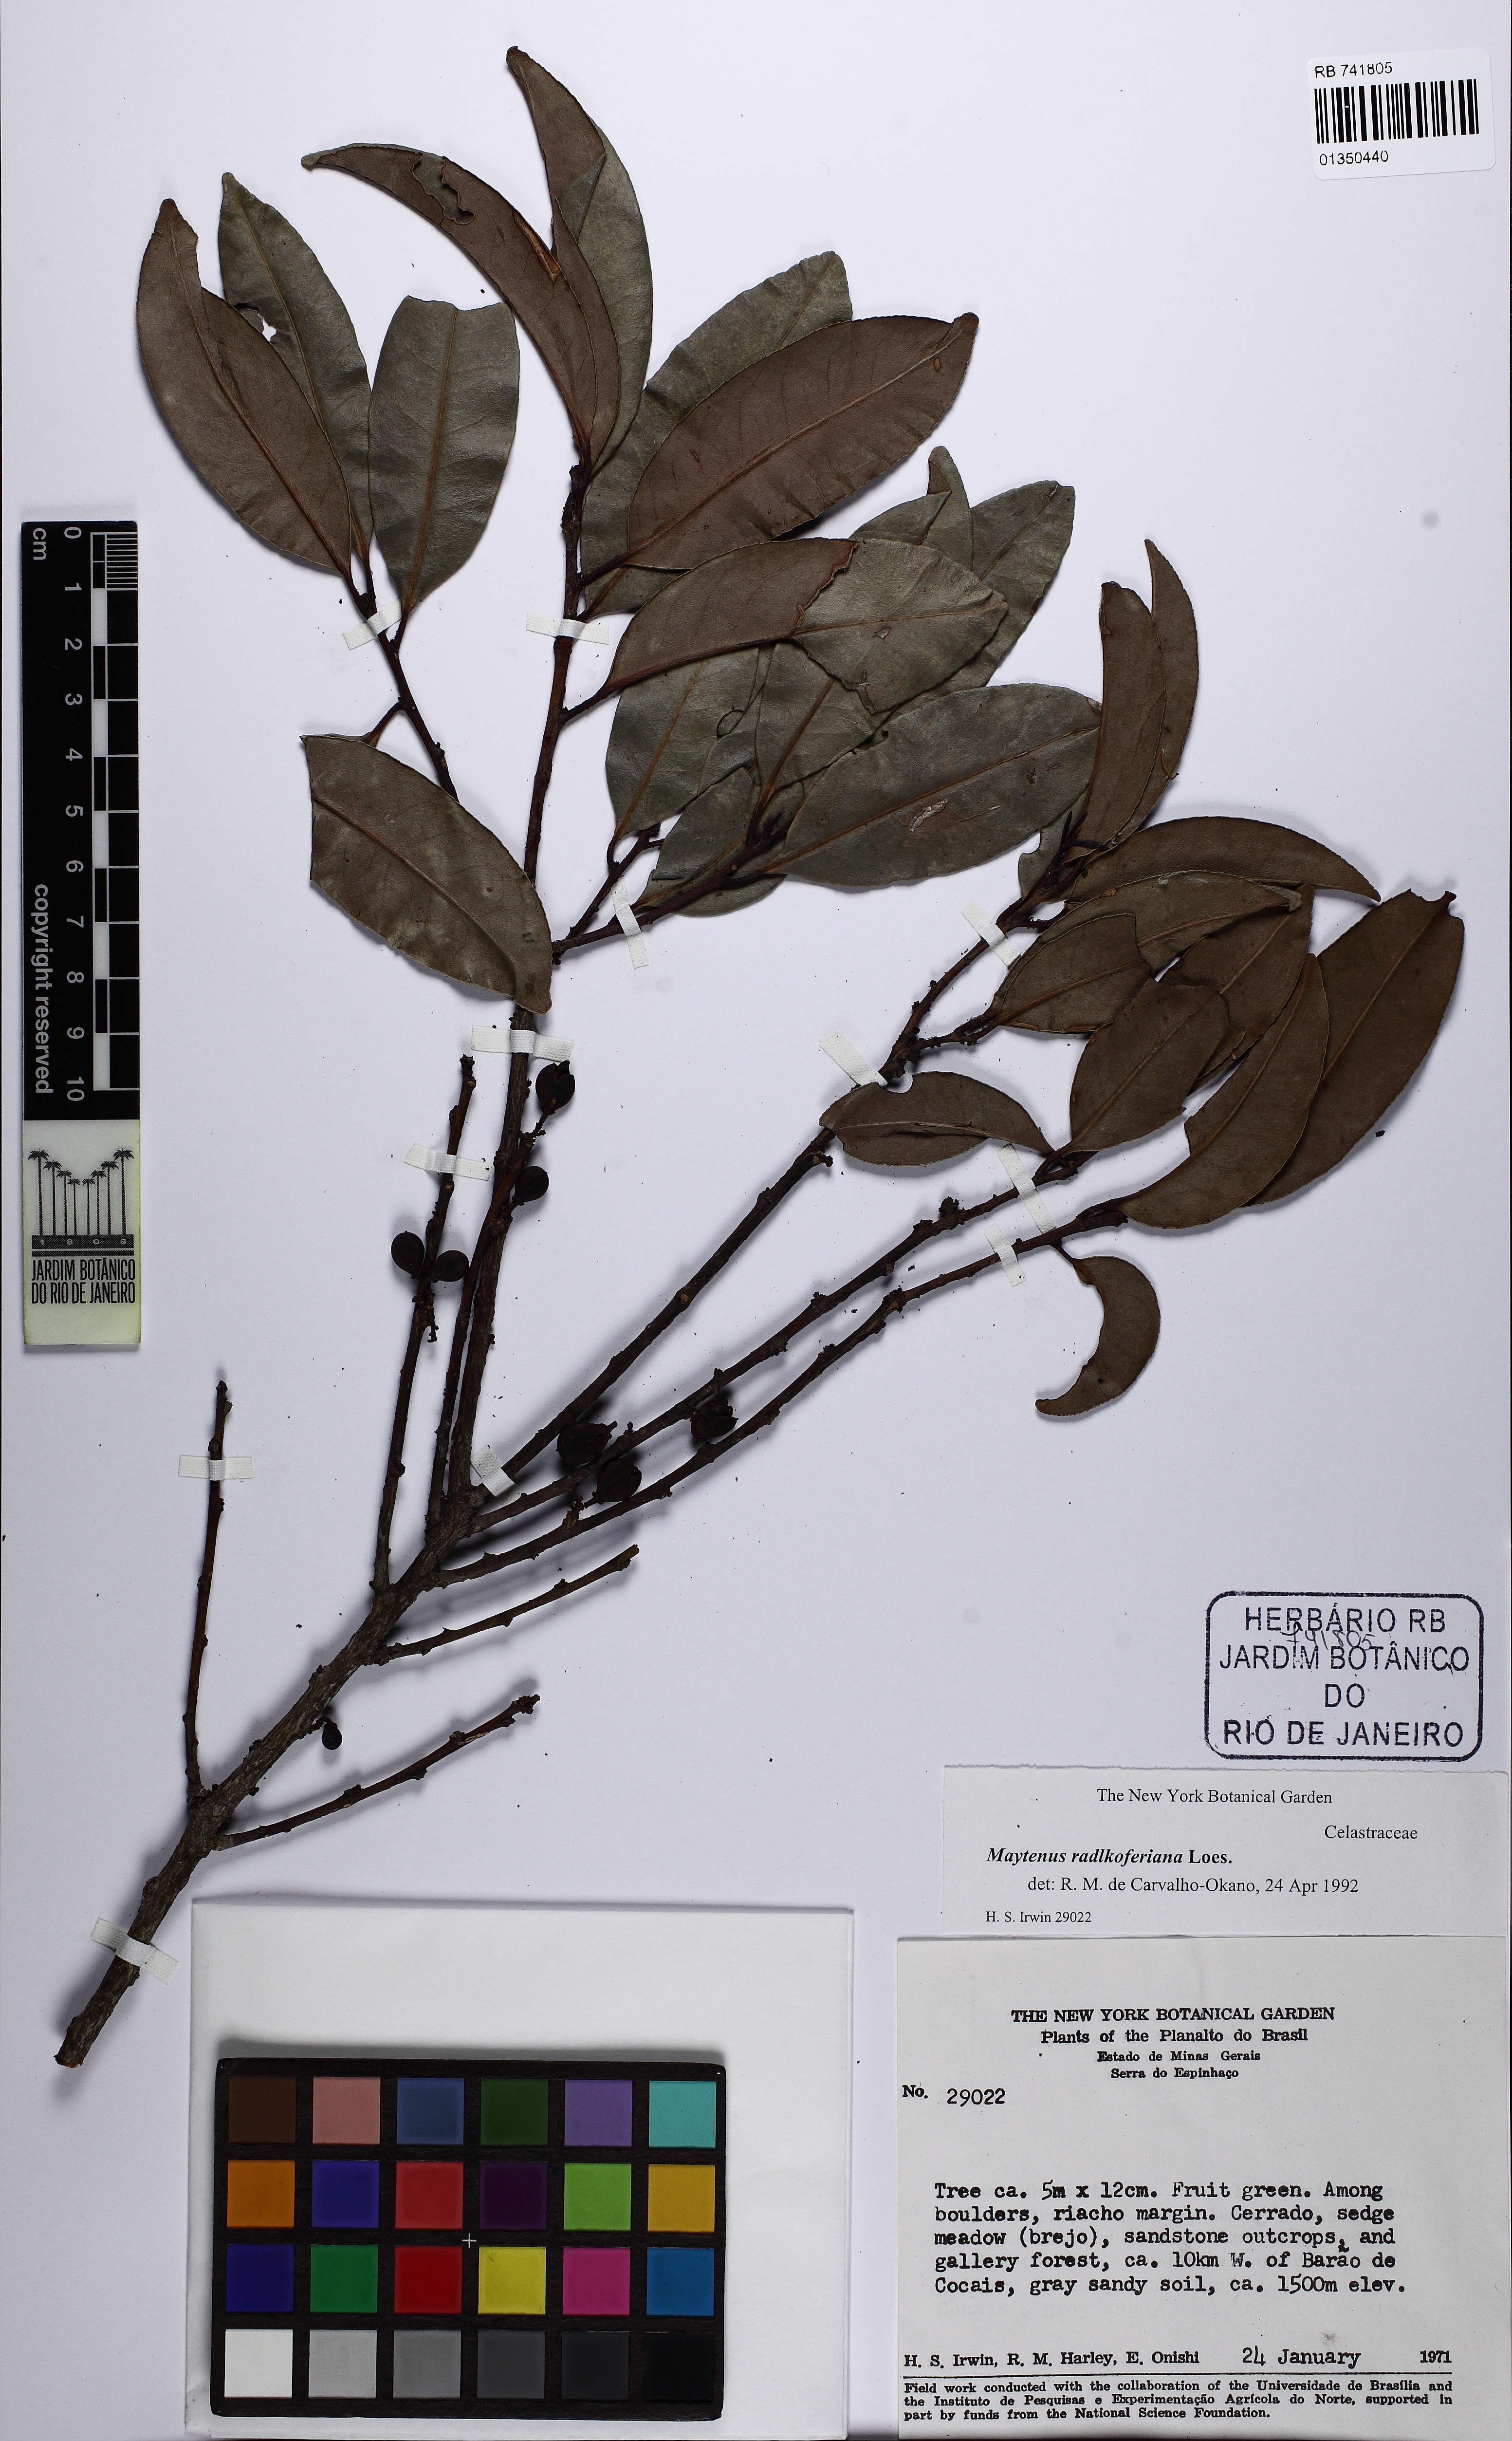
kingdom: Plantae
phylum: Tracheophyta
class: Magnoliopsida
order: Celastrales
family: Celastraceae
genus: Monteverdia
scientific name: Monteverdia radlkoferiana
